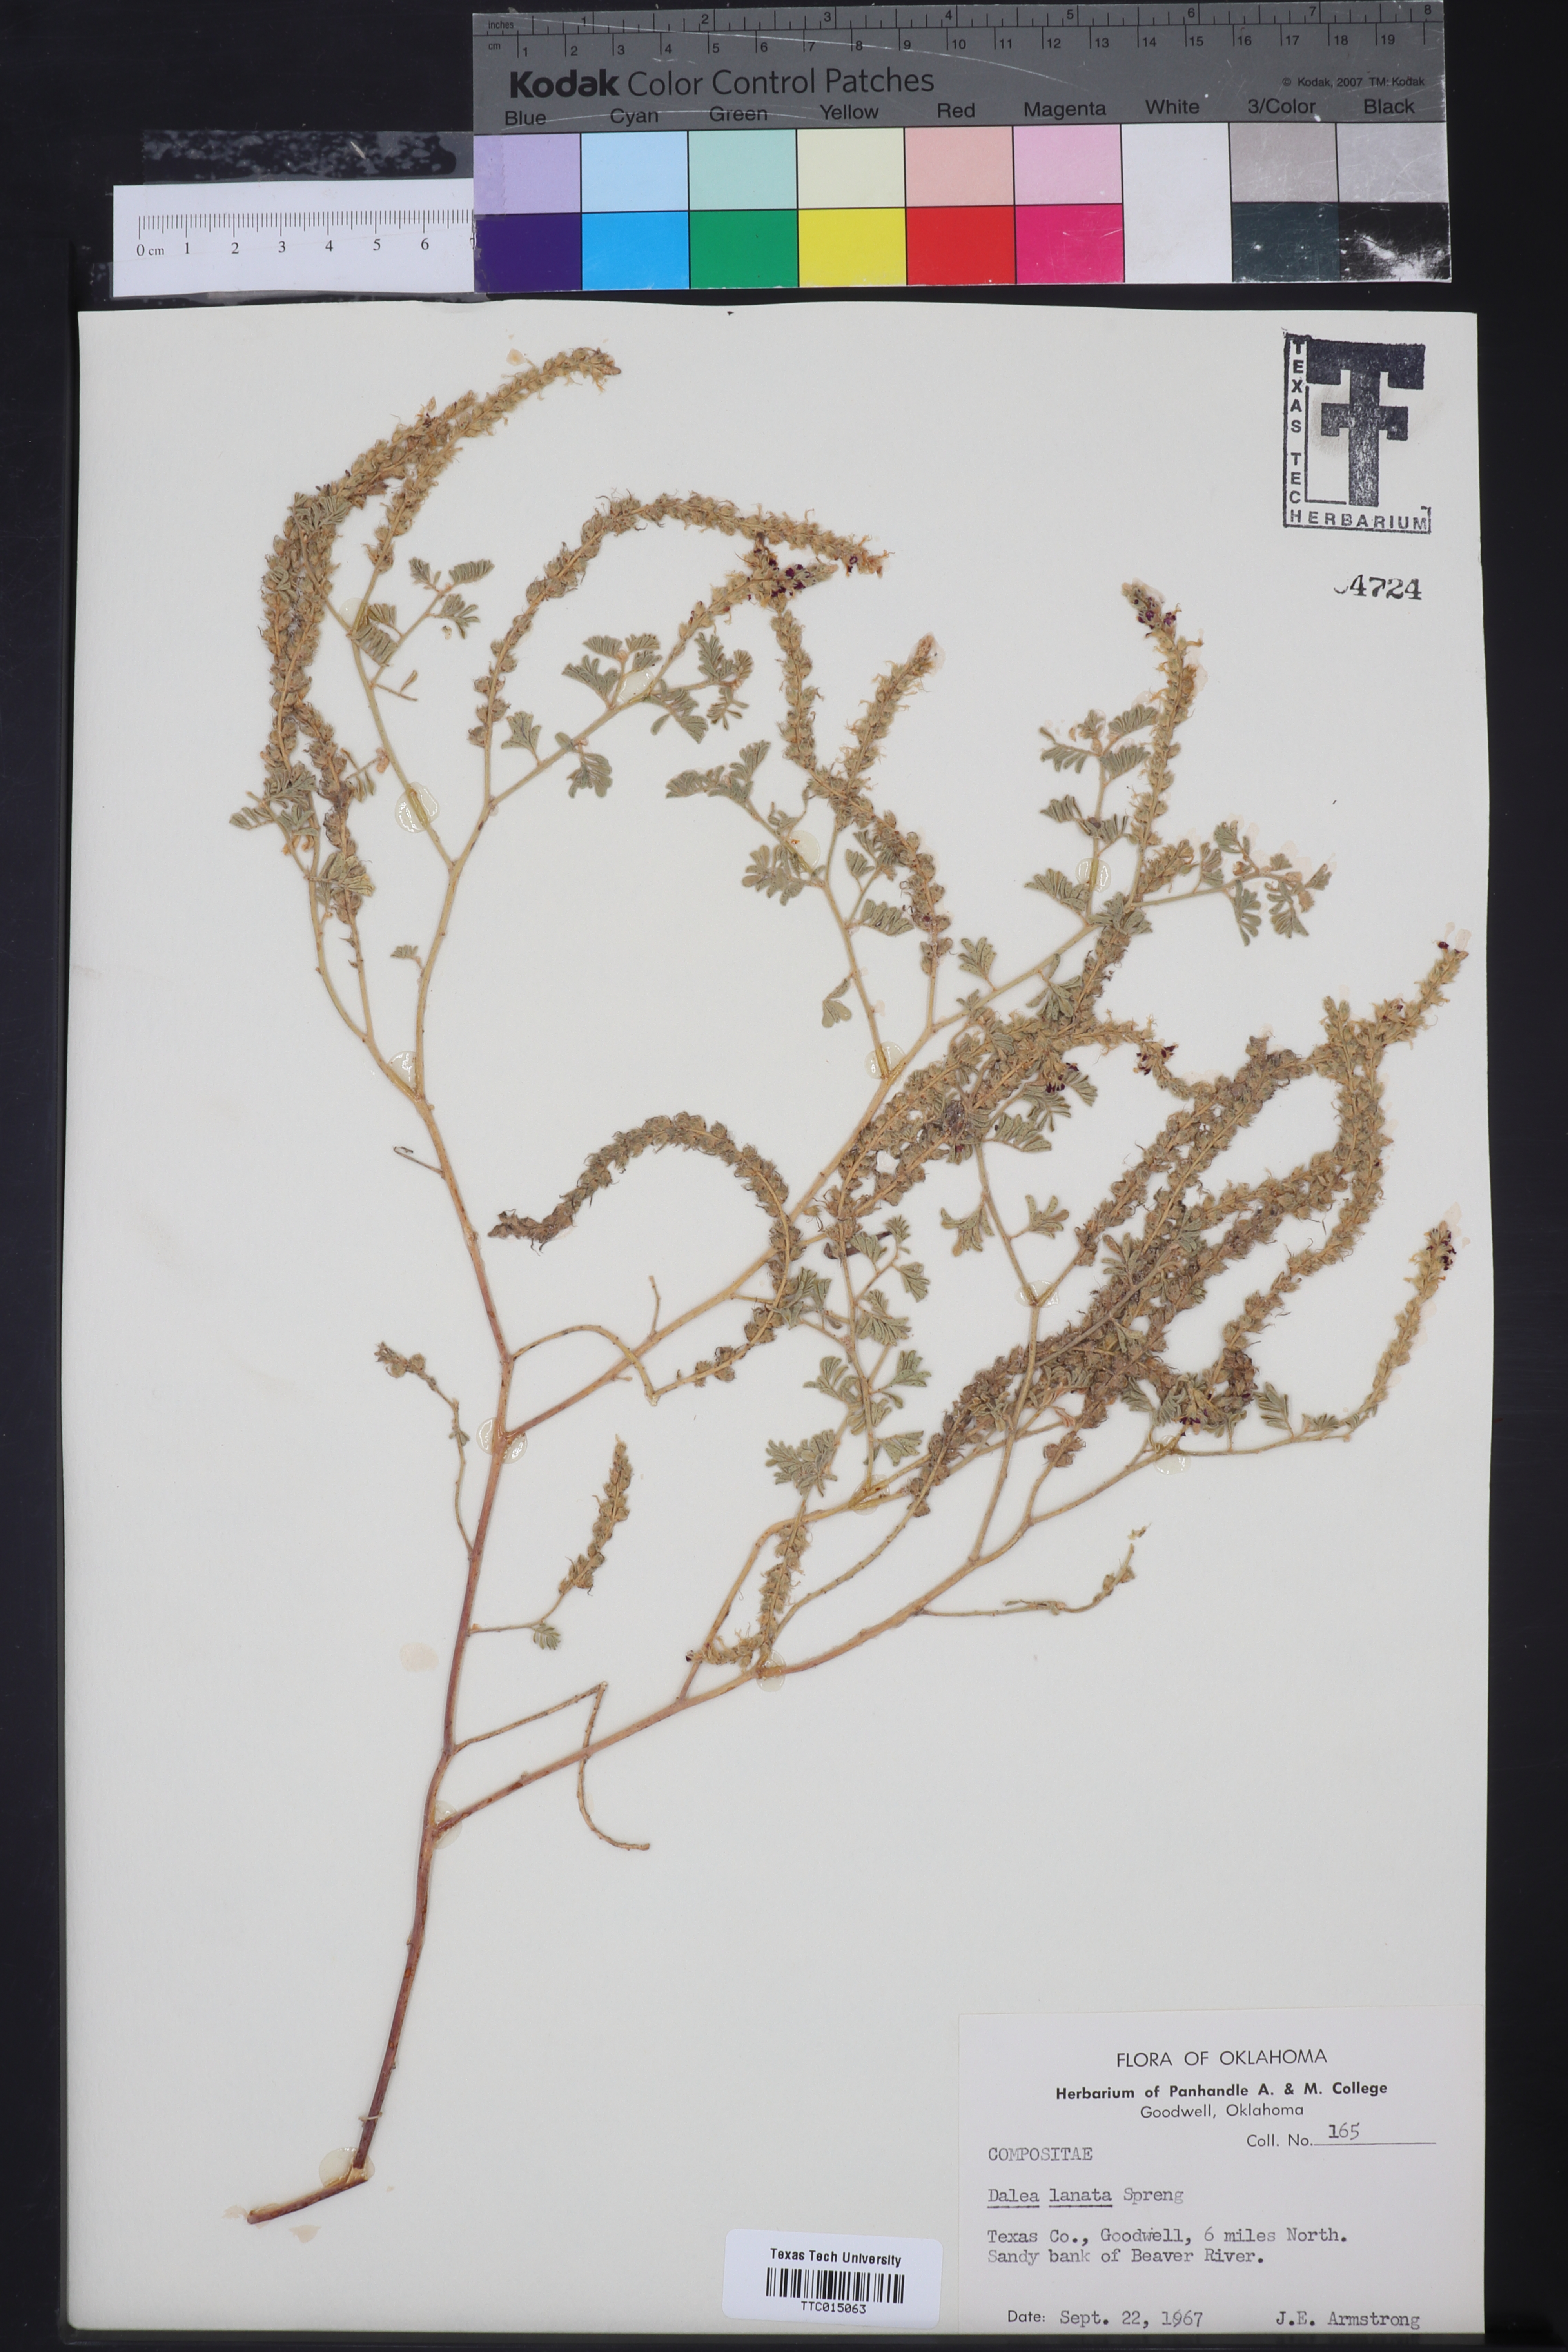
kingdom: Plantae
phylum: Tracheophyta
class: Magnoliopsida
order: Fabales
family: Fabaceae
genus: Dalea
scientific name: Dalea lanata
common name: Woolly dalea
